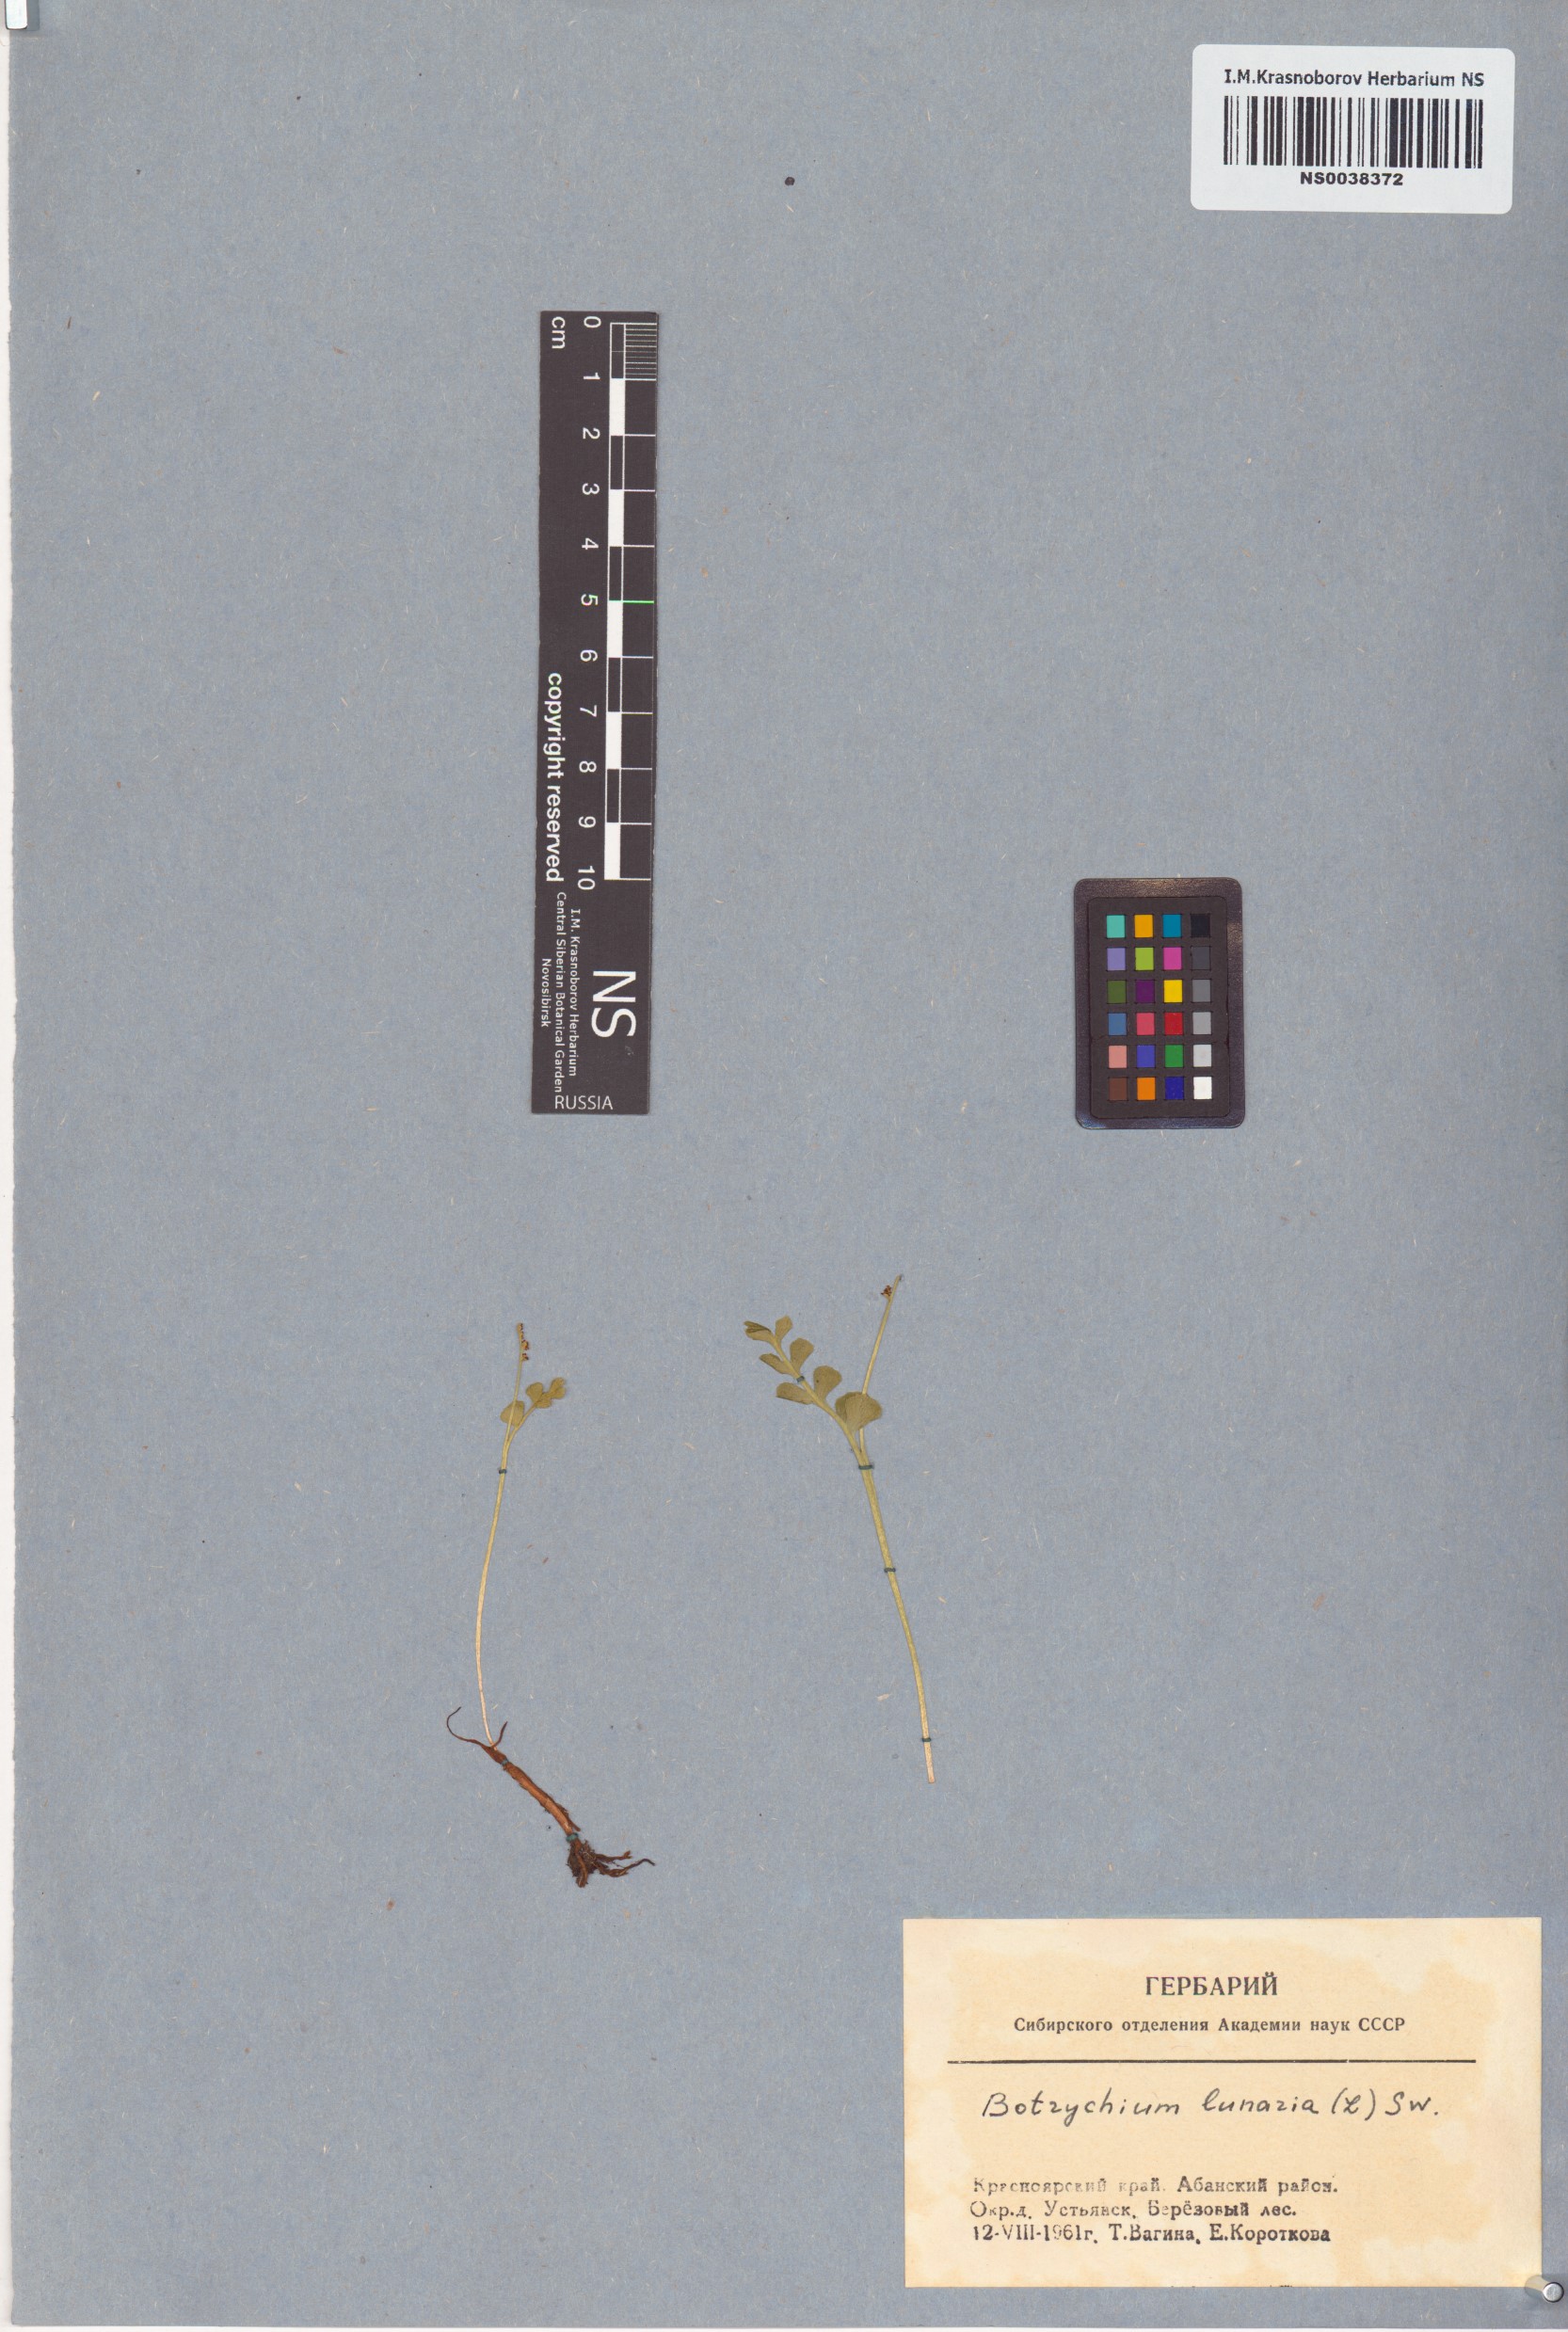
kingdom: Plantae
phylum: Tracheophyta
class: Polypodiopsida
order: Ophioglossales
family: Ophioglossaceae
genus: Botrychium
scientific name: Botrychium lunaria
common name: Moonwort
